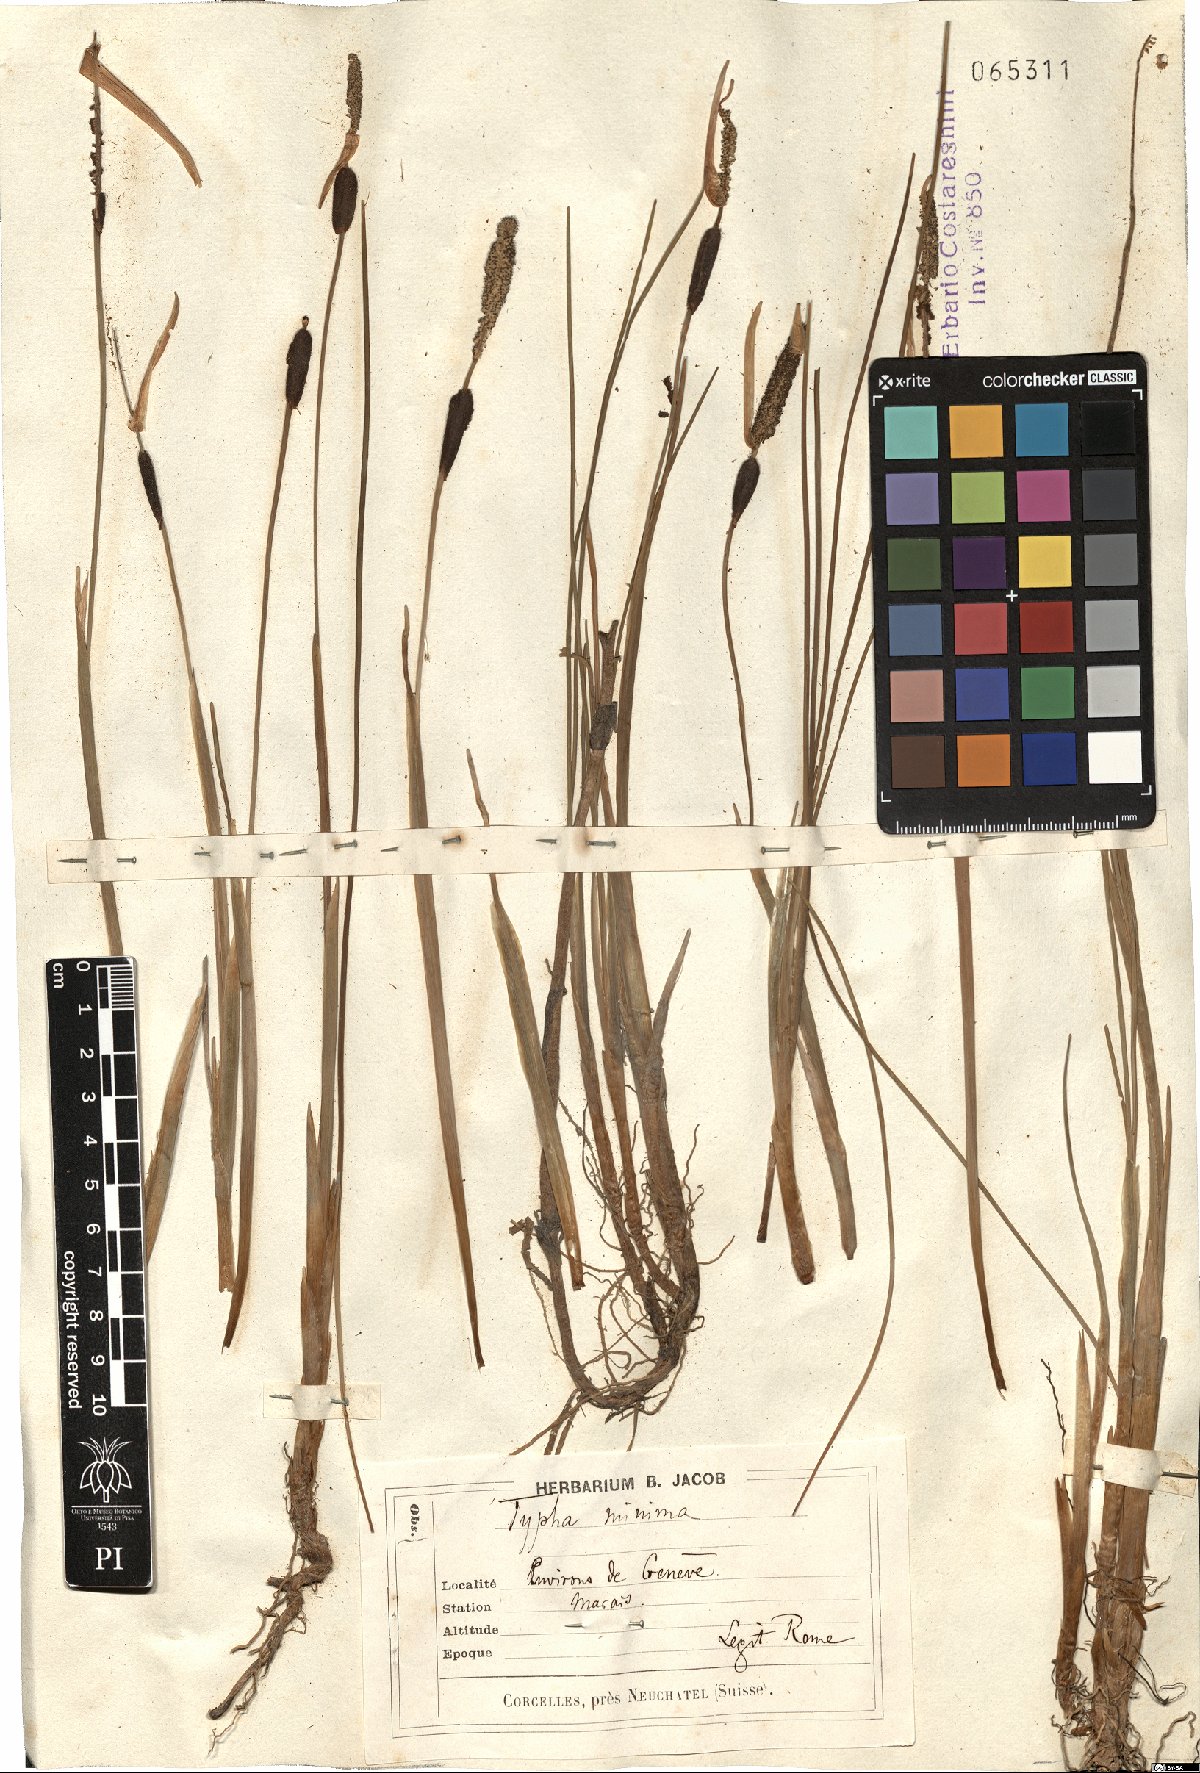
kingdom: Plantae
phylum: Tracheophyta
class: Liliopsida
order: Poales
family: Typhaceae
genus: Typha
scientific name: Typha minima
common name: Dwarf bulrush
